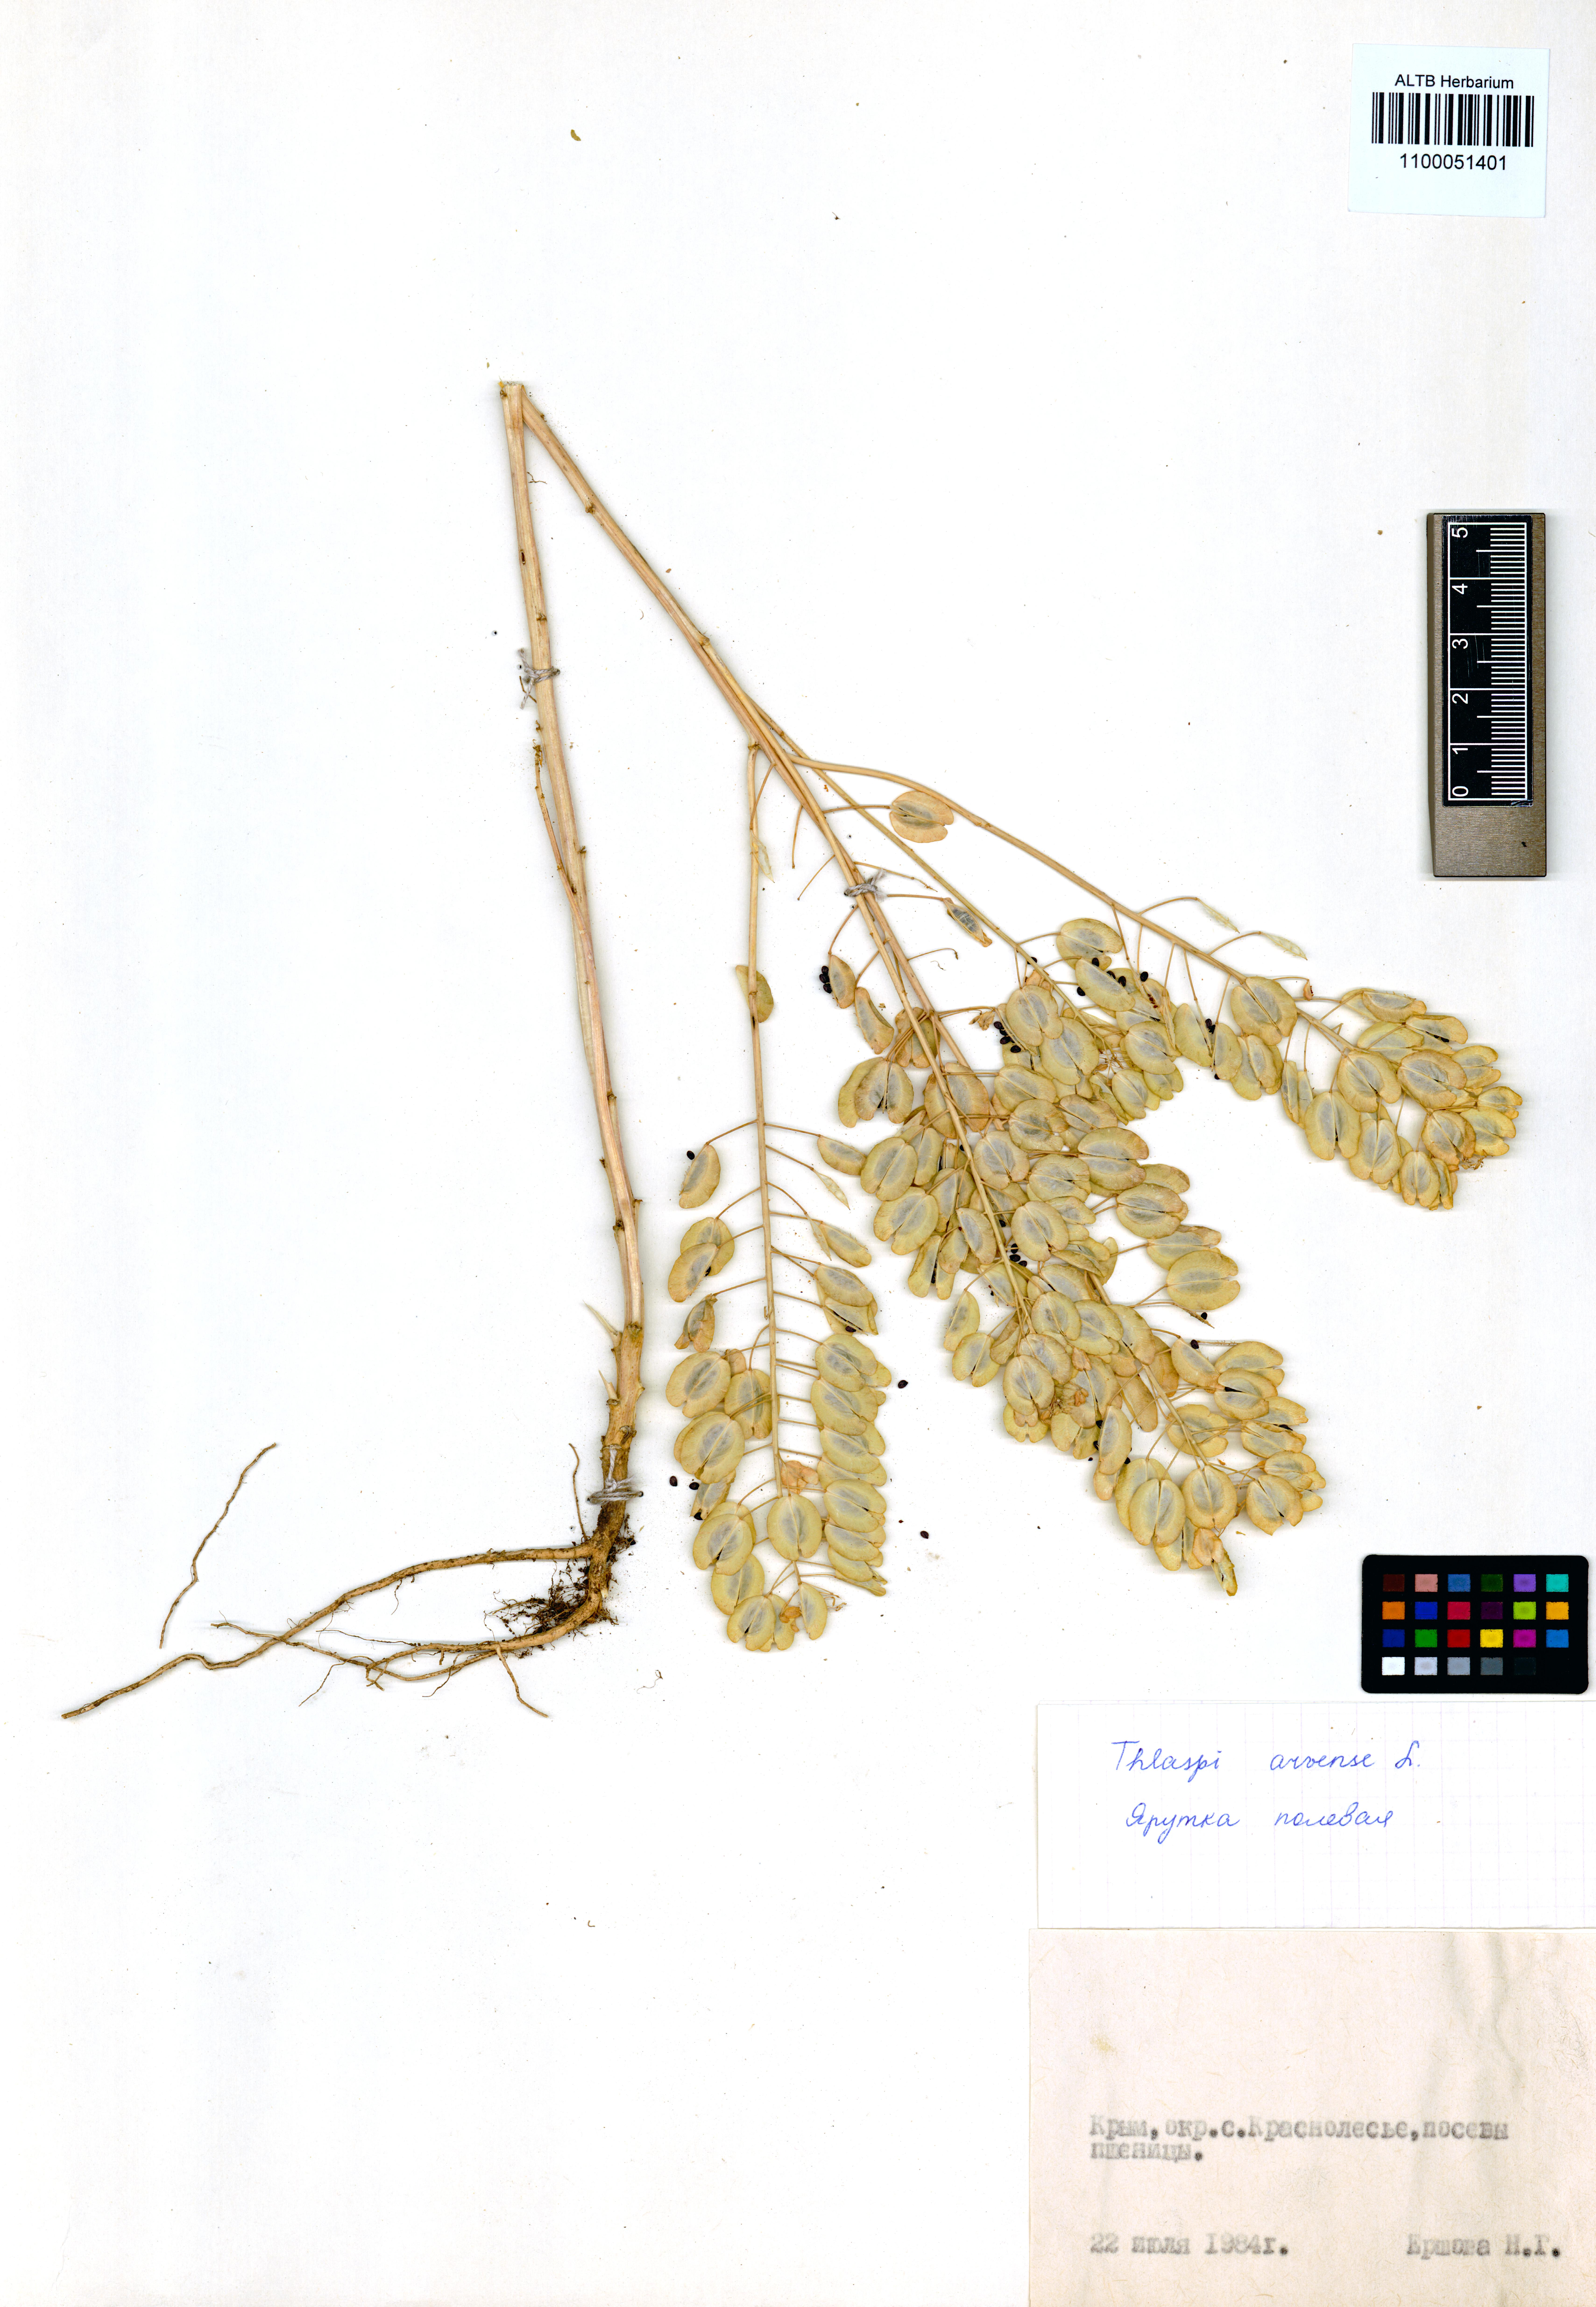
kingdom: Plantae
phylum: Tracheophyta
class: Magnoliopsida
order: Brassicales
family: Brassicaceae
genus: Thlaspi
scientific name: Thlaspi arvense
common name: Field pennycress
